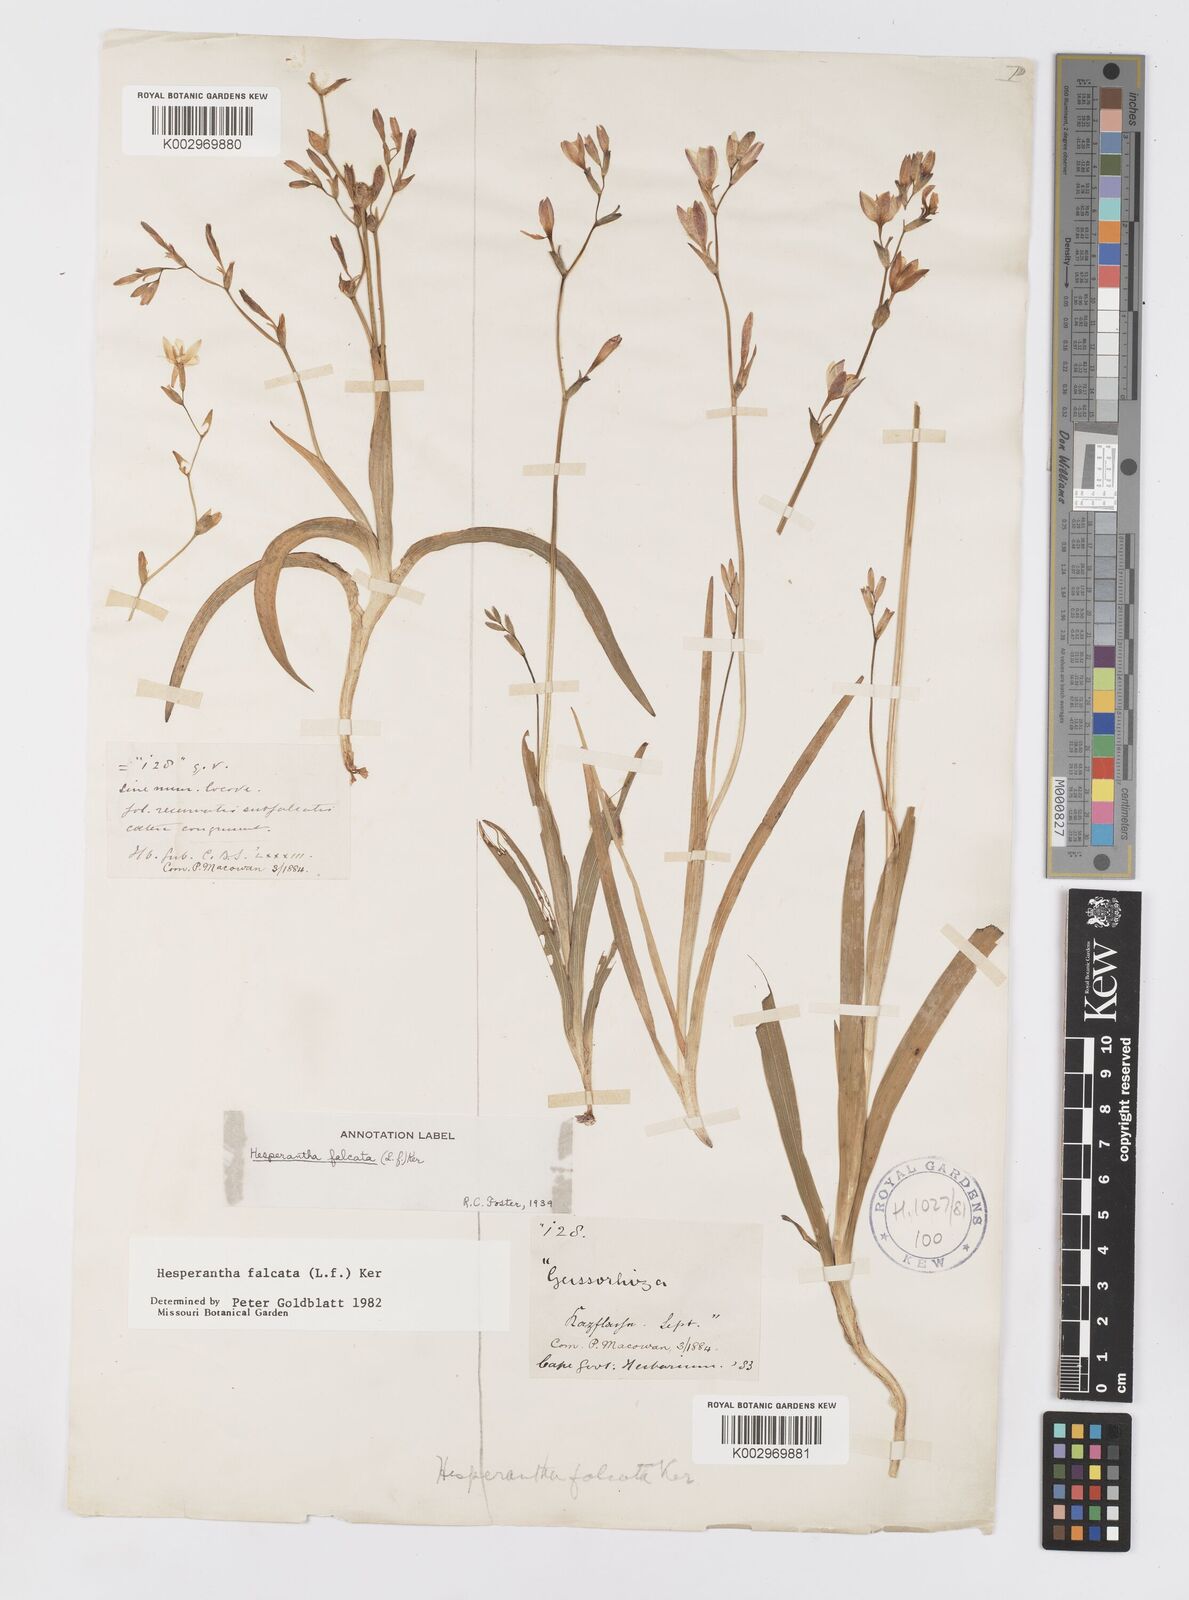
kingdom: Plantae
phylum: Tracheophyta
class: Liliopsida
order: Asparagales
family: Iridaceae
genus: Hesperantha
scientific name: Hesperantha falcata
